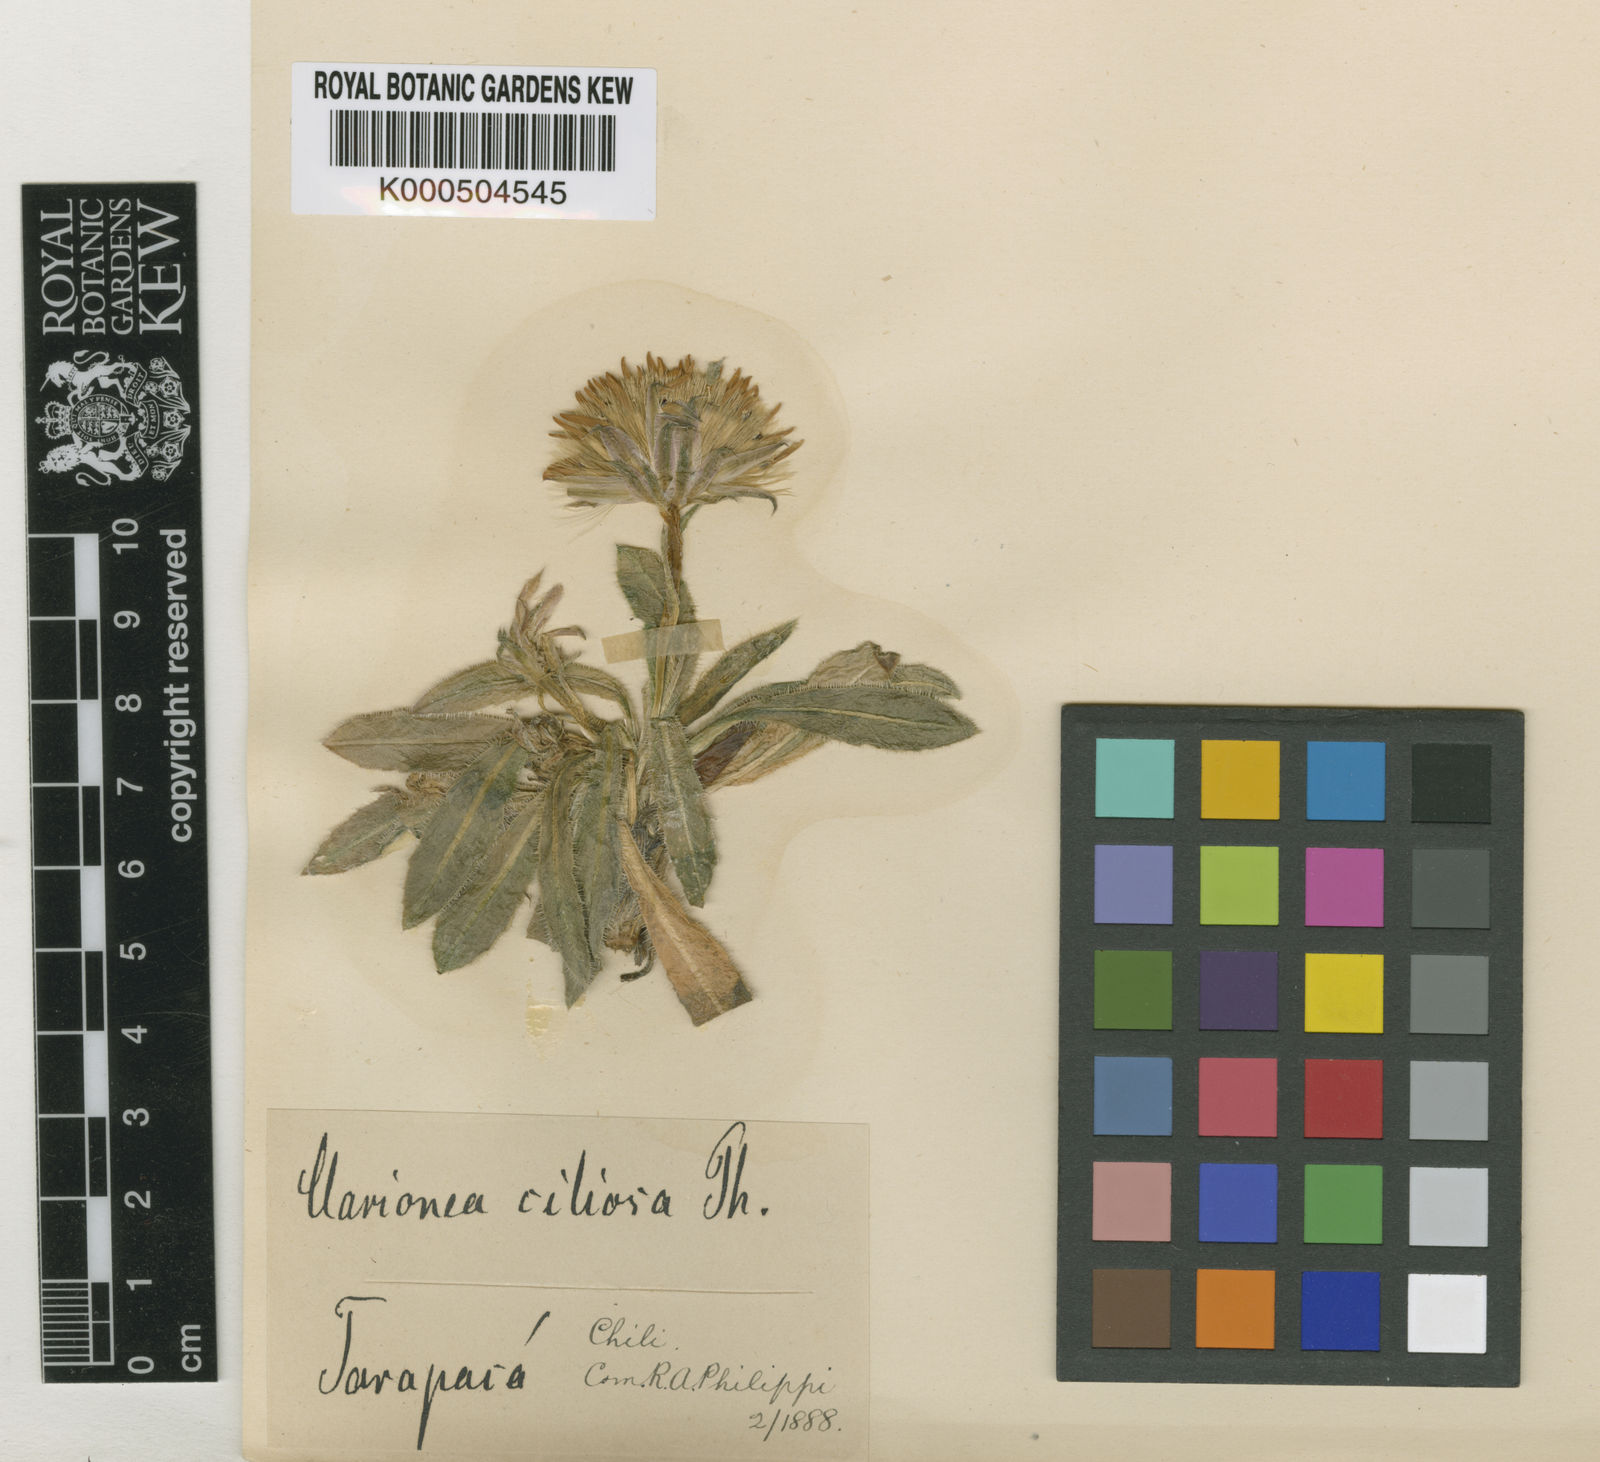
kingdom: Plantae
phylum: Tracheophyta
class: Magnoliopsida
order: Asterales
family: Asteraceae
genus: Perezia
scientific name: Perezia ciliosa
